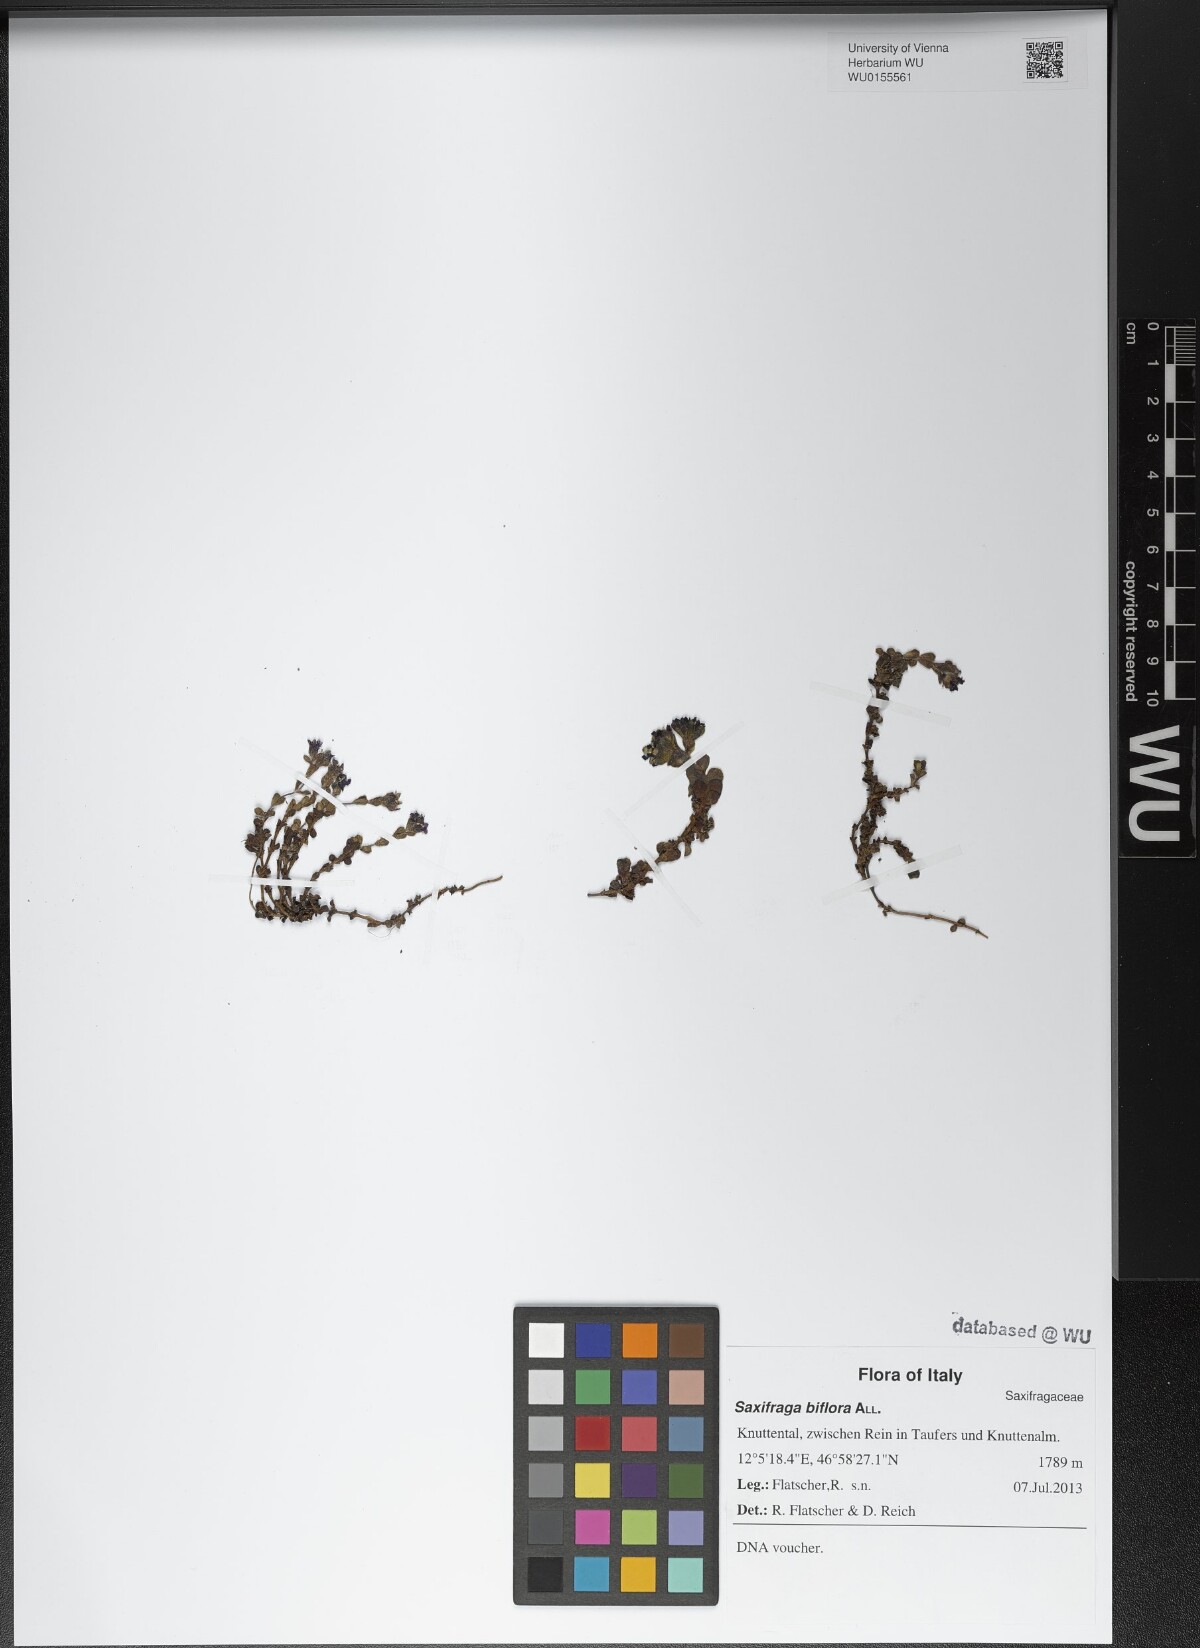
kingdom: Plantae
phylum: Tracheophyta
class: Magnoliopsida
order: Saxifragales
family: Saxifragaceae
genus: Saxifraga
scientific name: Saxifraga biflora
